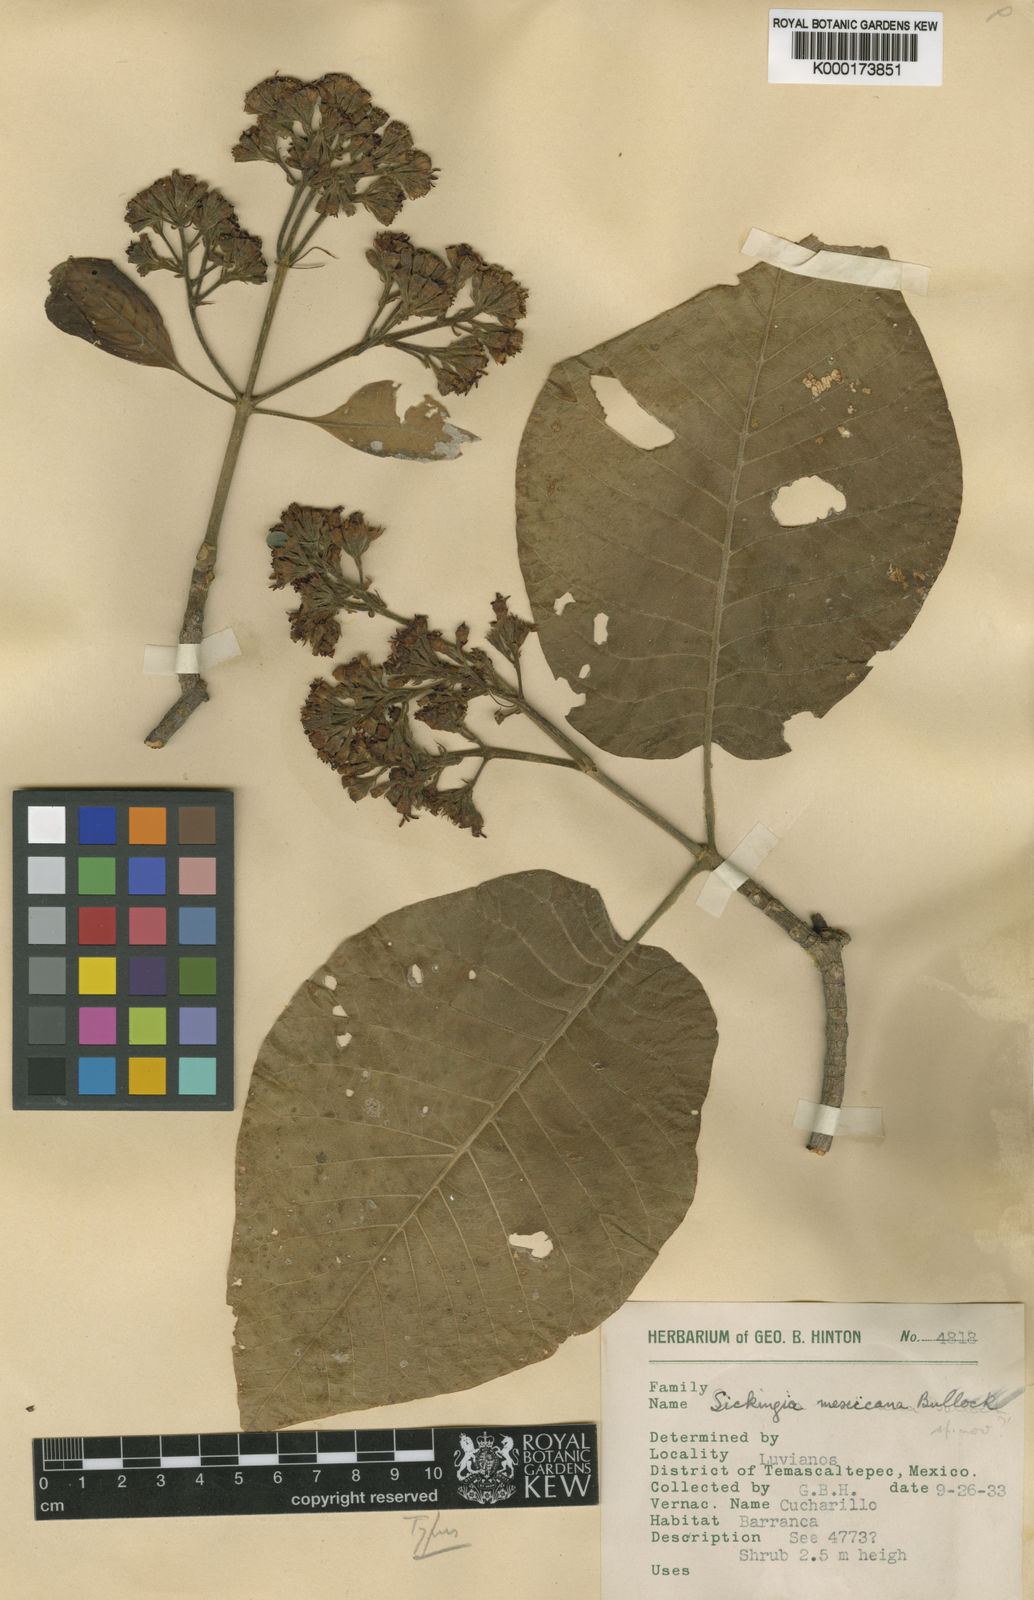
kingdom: Plantae
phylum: Tracheophyta
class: Magnoliopsida
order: Gentianales
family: Rubiaceae
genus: Simira
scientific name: Simira mexicana
